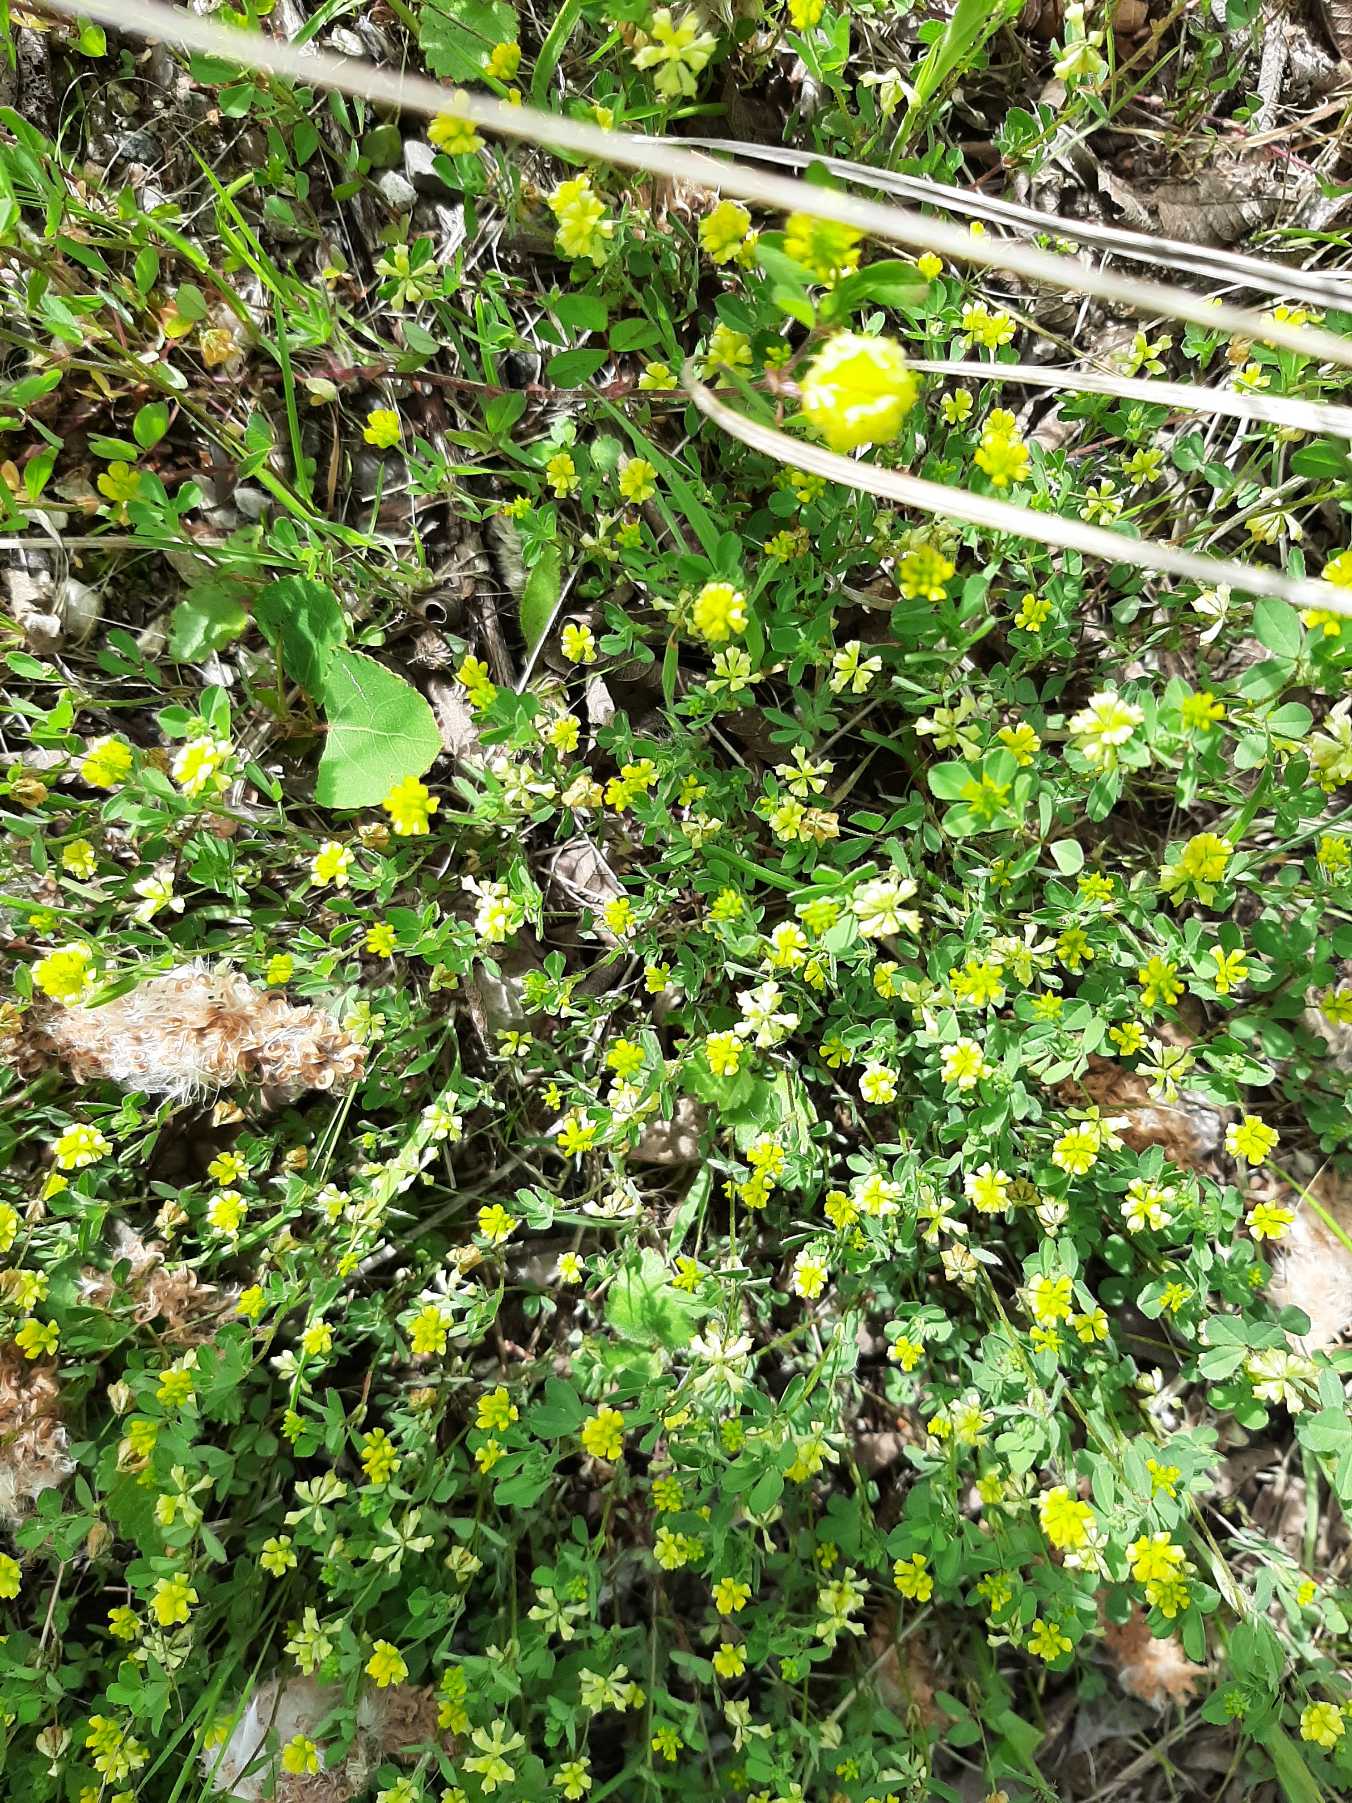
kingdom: Plantae
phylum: Tracheophyta
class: Magnoliopsida
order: Fabales
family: Fabaceae
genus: Trifolium
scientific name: Trifolium dubium
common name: Fin kløver
